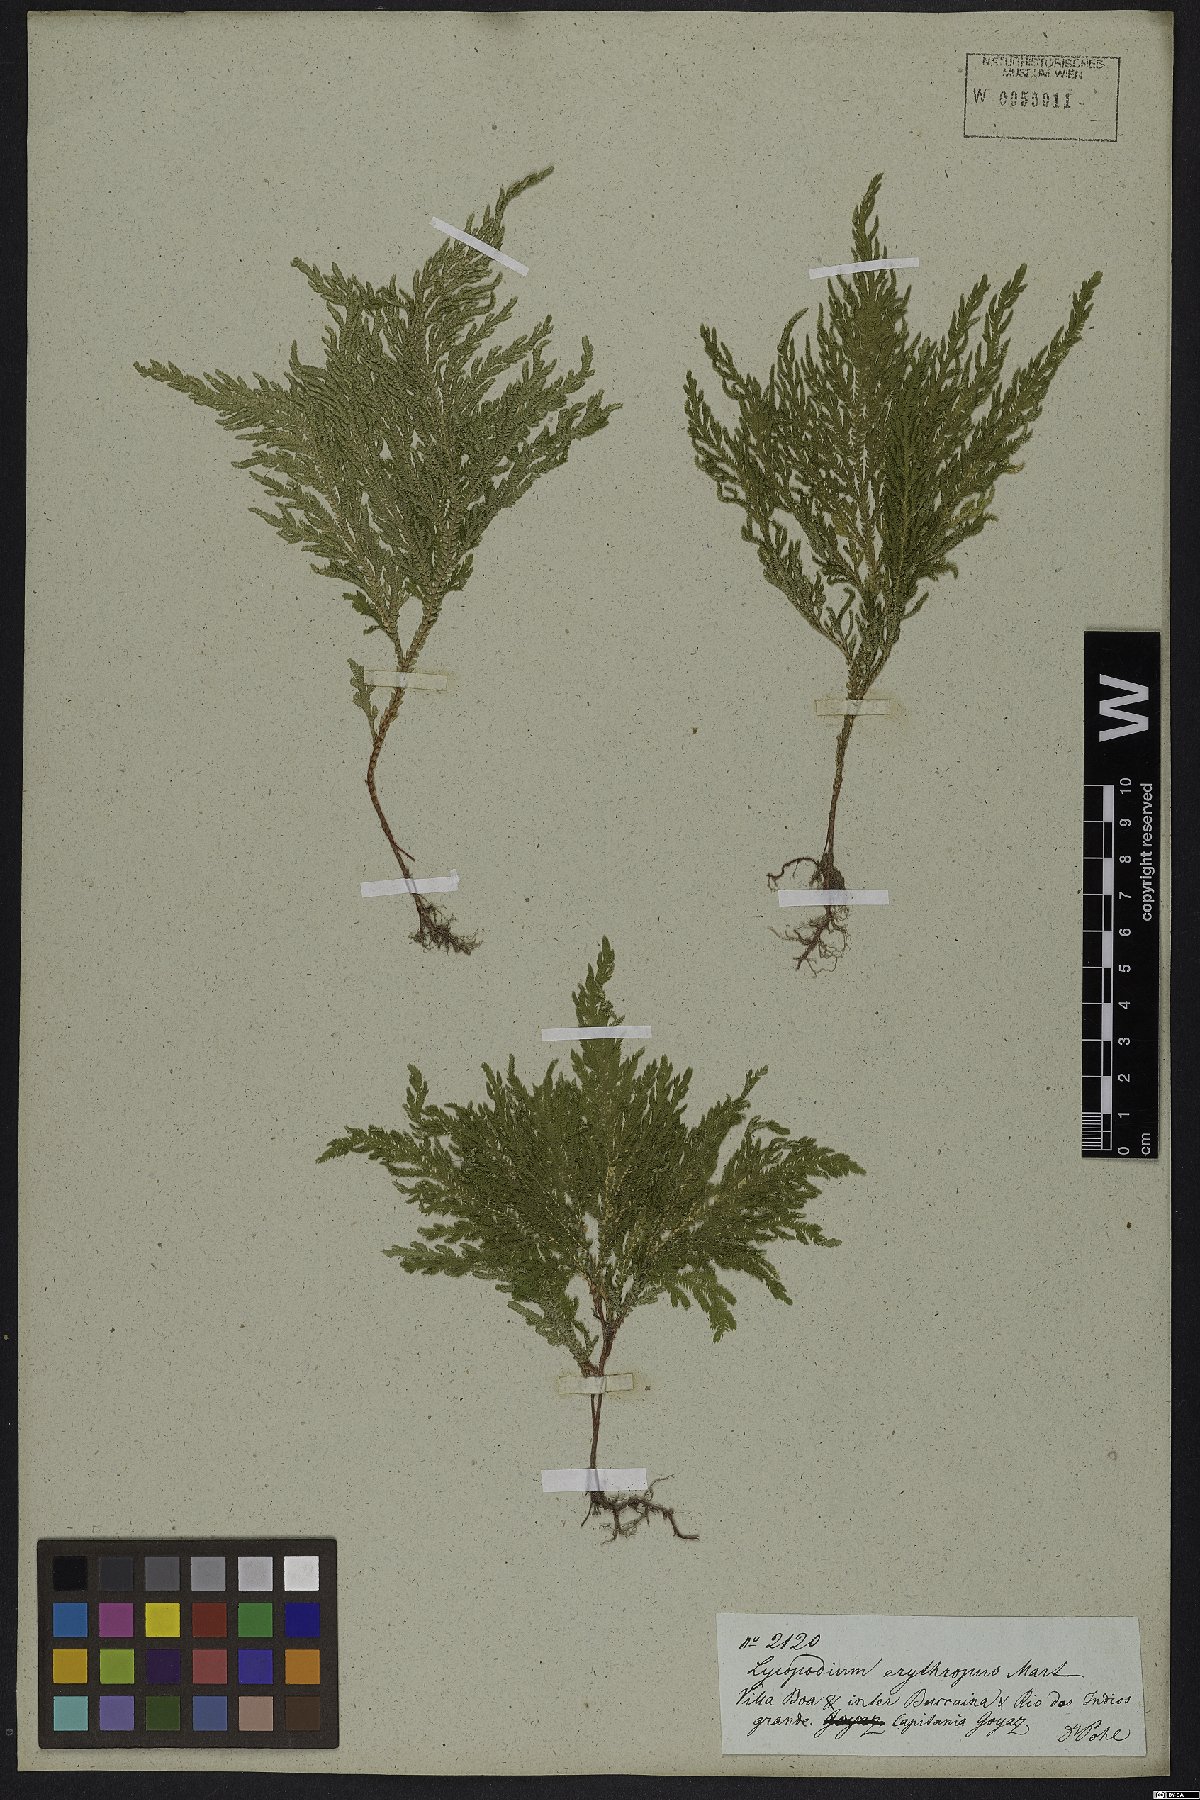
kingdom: Plantae
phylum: Tracheophyta
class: Lycopodiopsida
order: Selaginellales
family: Selaginellaceae
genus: Selaginella
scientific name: Selaginella erythropus
